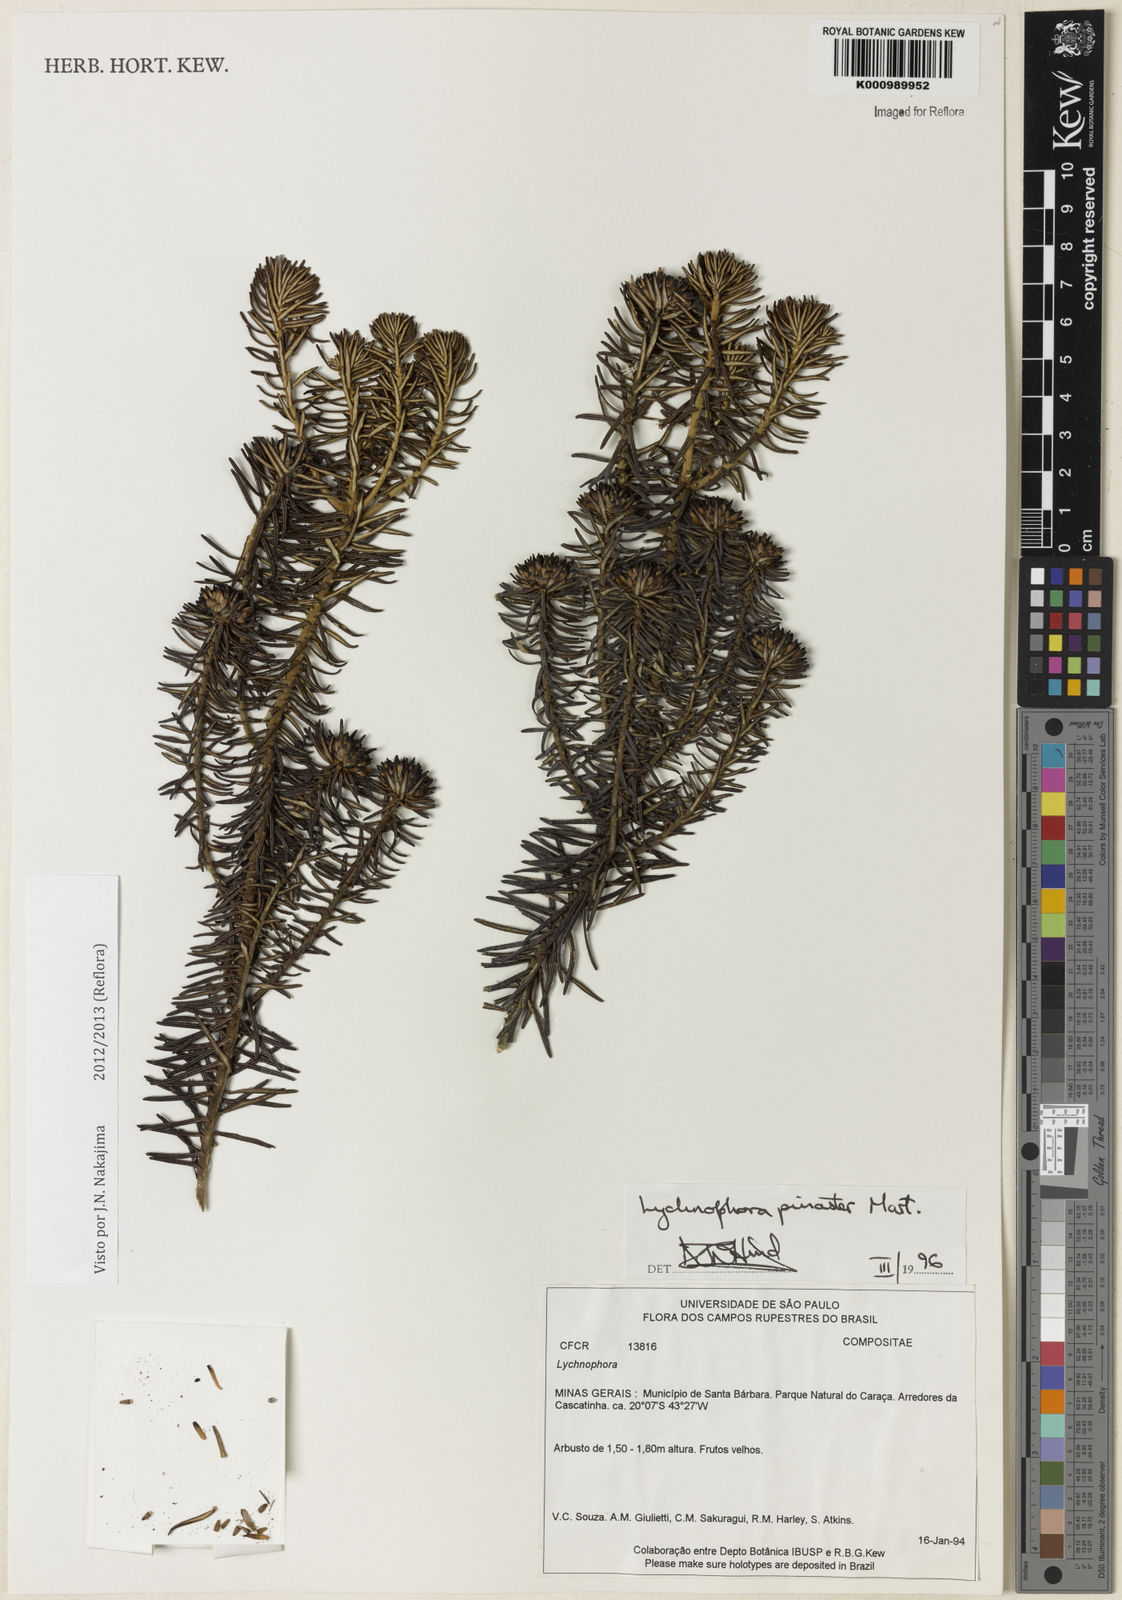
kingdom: Plantae
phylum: Tracheophyta
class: Magnoliopsida
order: Asterales
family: Asteraceae
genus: Lychnophora
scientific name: Lychnophora pinaster
